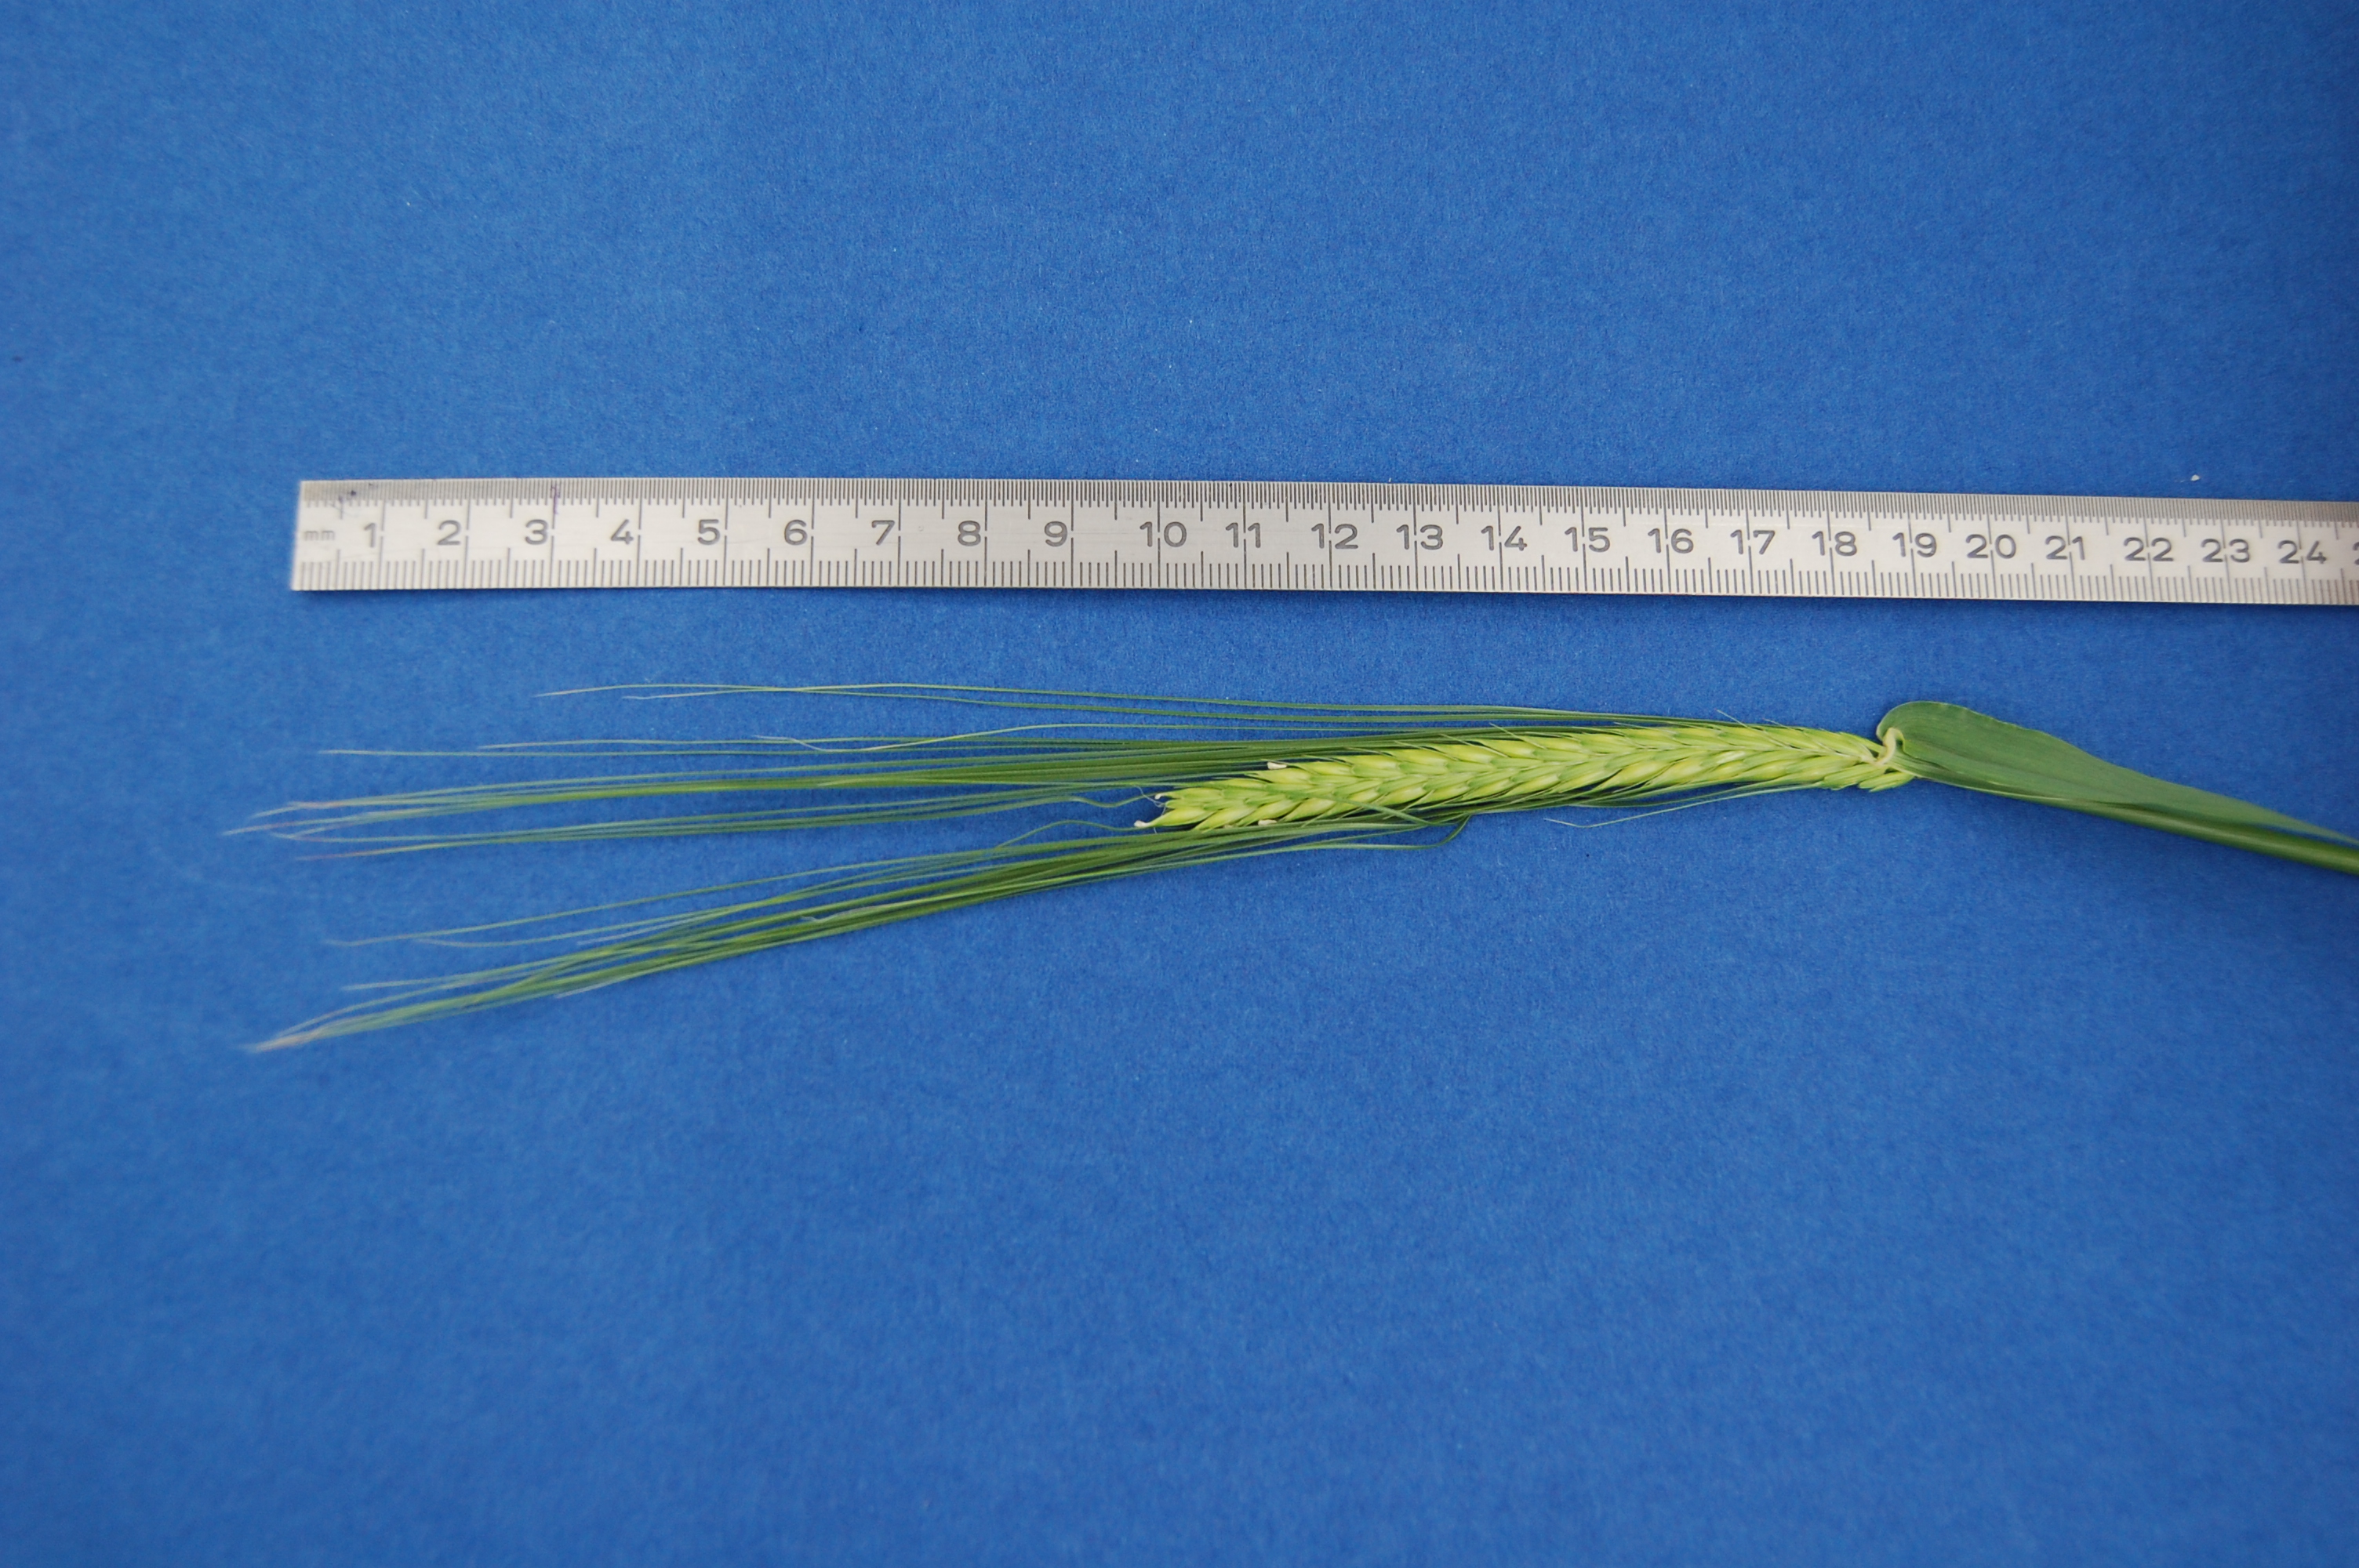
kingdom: Plantae
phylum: Tracheophyta
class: Liliopsida
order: Poales
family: Poaceae
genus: Hordeum
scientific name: Hordeum vulgare
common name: Common barley
